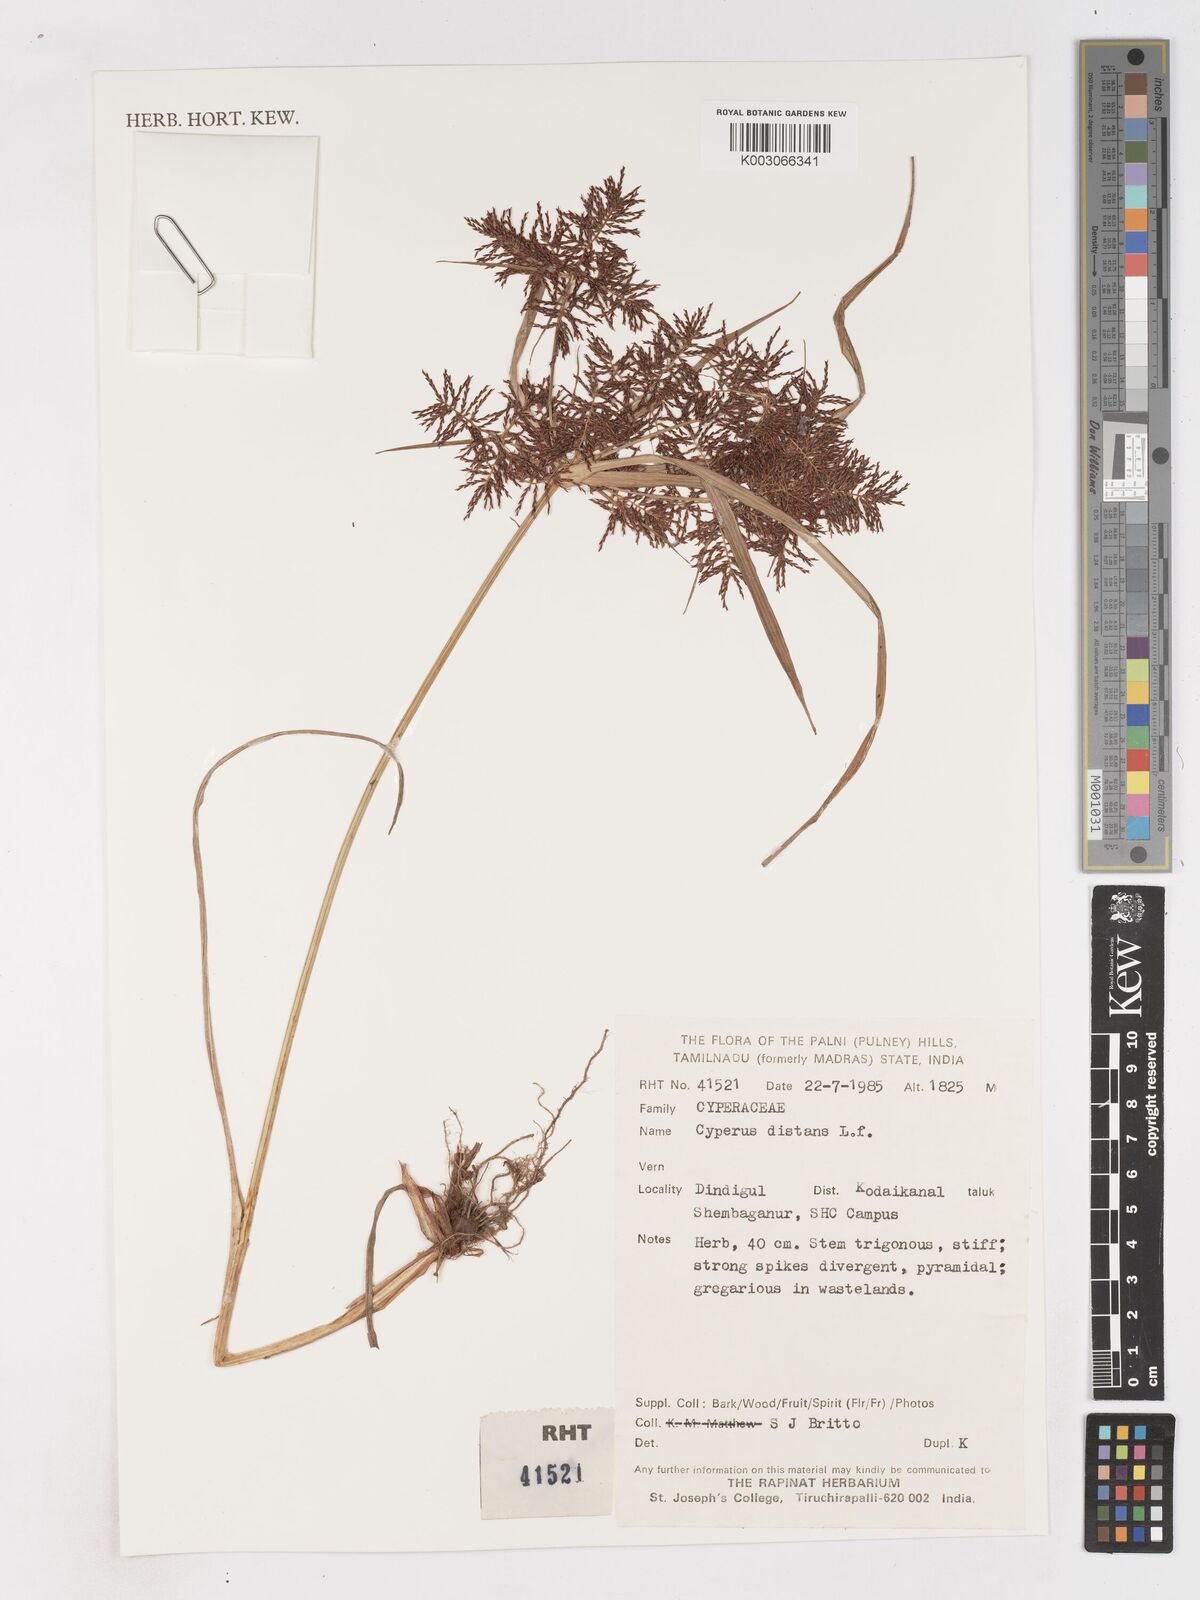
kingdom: Plantae
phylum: Tracheophyta
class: Liliopsida
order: Poales
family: Cyperaceae
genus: Cyperus
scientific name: Cyperus distans
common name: Slender cyperus
